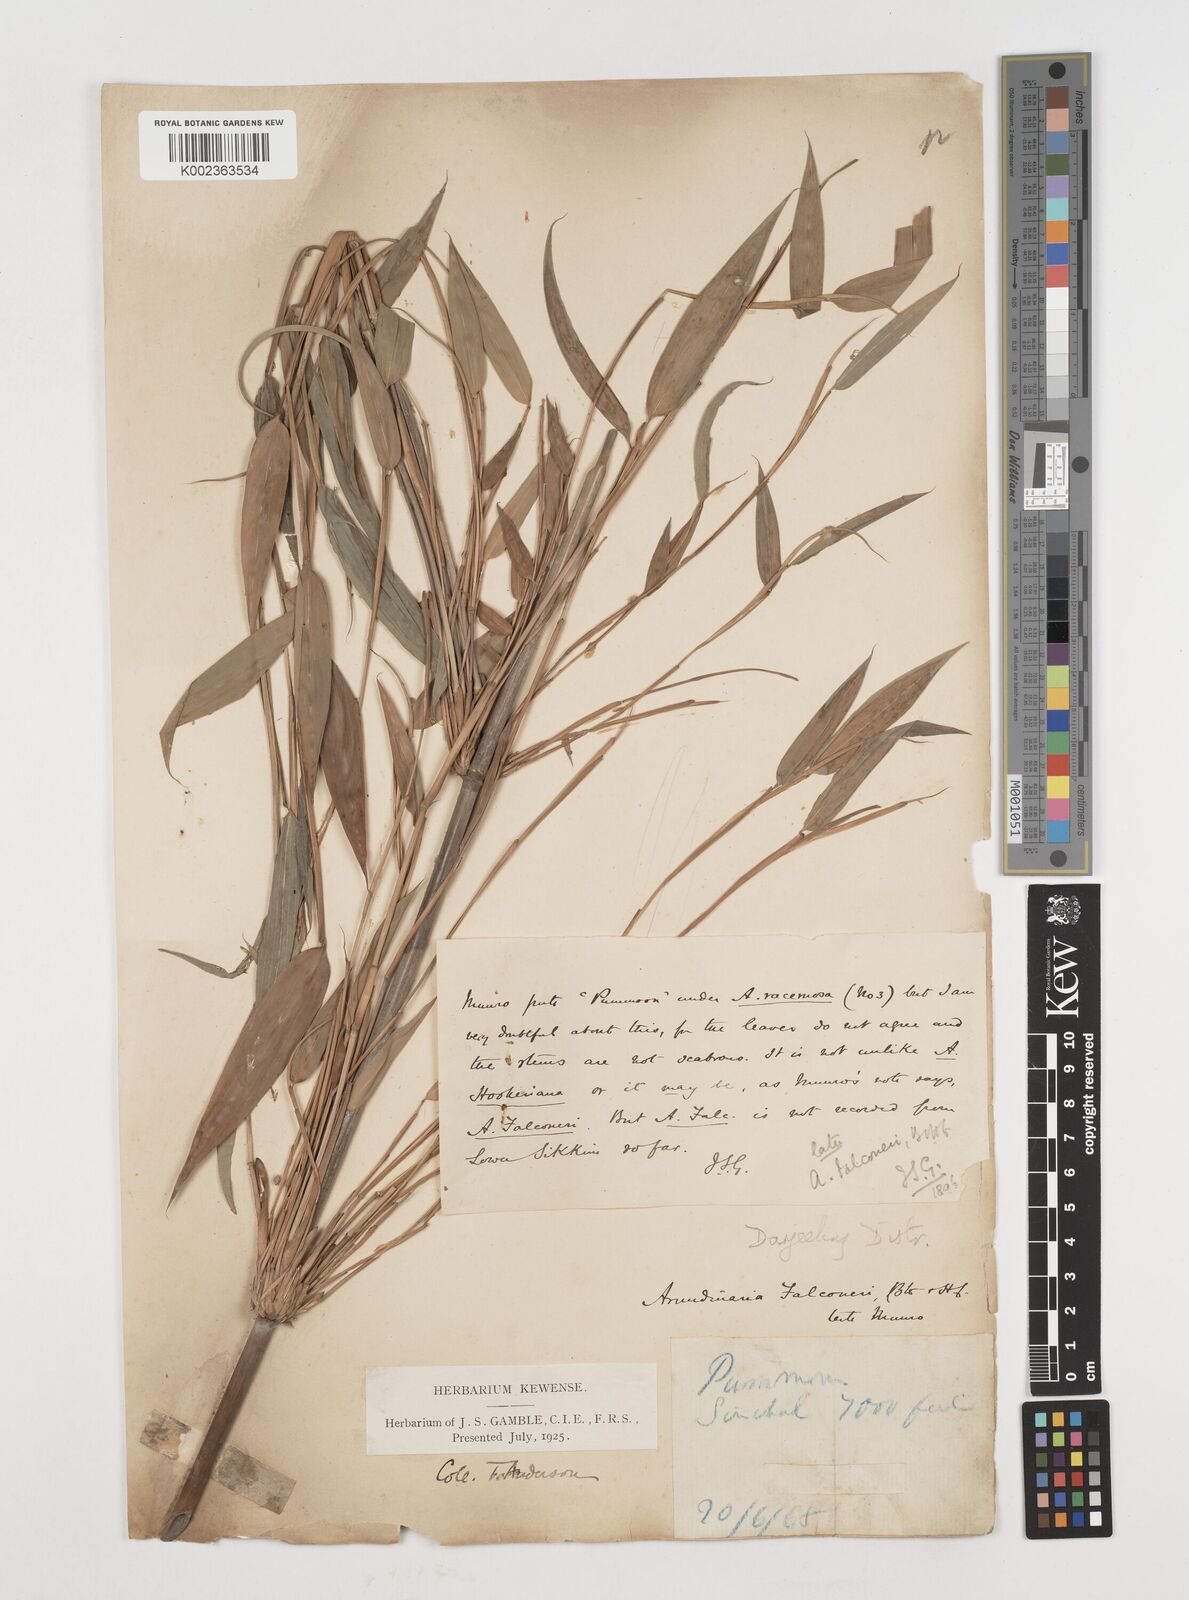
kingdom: Plantae
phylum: Tracheophyta
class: Liliopsida
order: Poales
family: Poaceae
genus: Himalayacalamus
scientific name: Himalayacalamus falconeri
